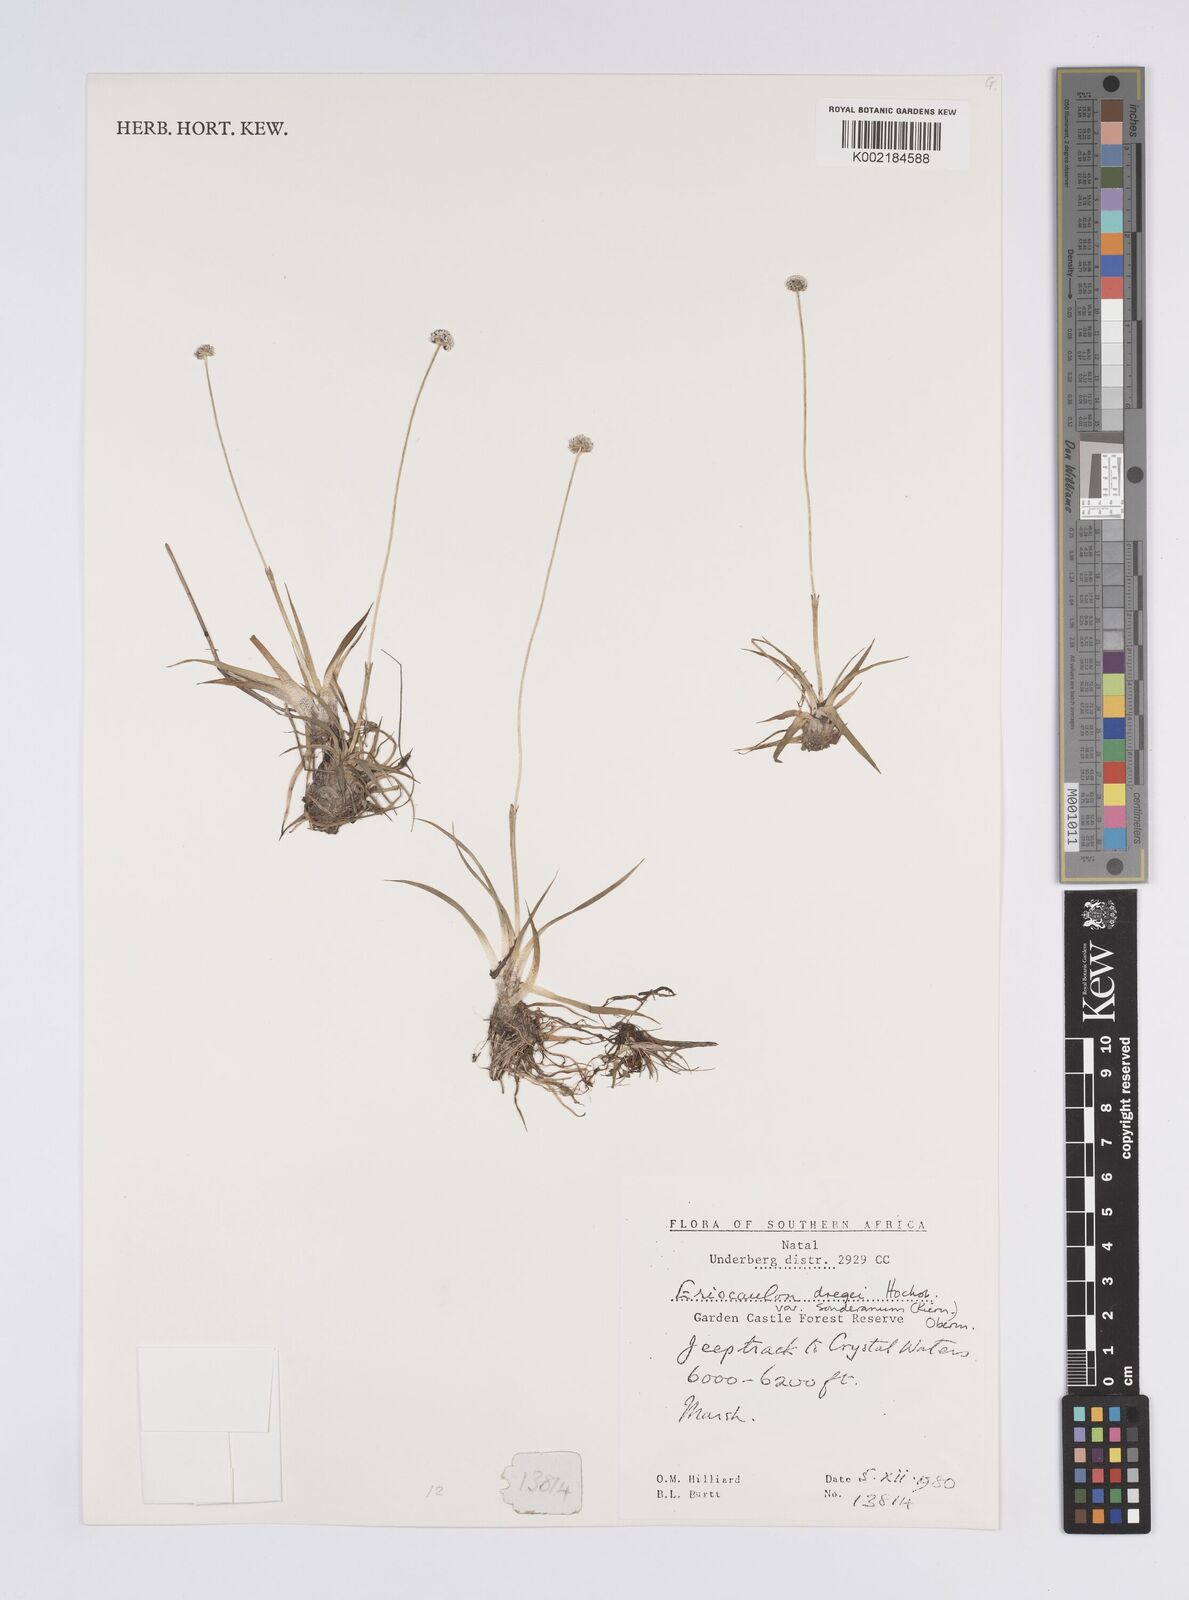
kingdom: Plantae
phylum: Tracheophyta
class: Liliopsida
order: Poales
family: Eriocaulaceae
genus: Eriocaulon
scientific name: Eriocaulon sonderianum
